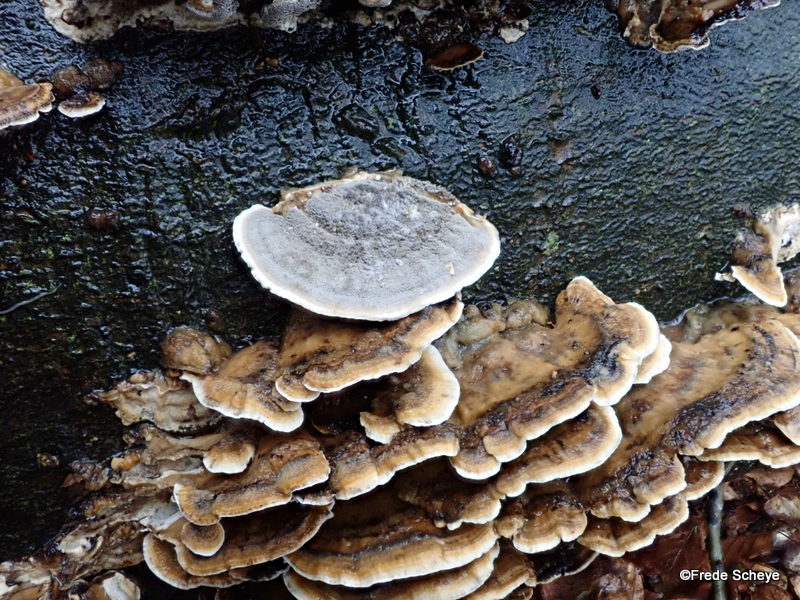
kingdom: Fungi
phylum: Basidiomycota
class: Agaricomycetes
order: Polyporales
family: Phanerochaetaceae
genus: Bjerkandera
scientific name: Bjerkandera adusta
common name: sveden sodporesvamp
